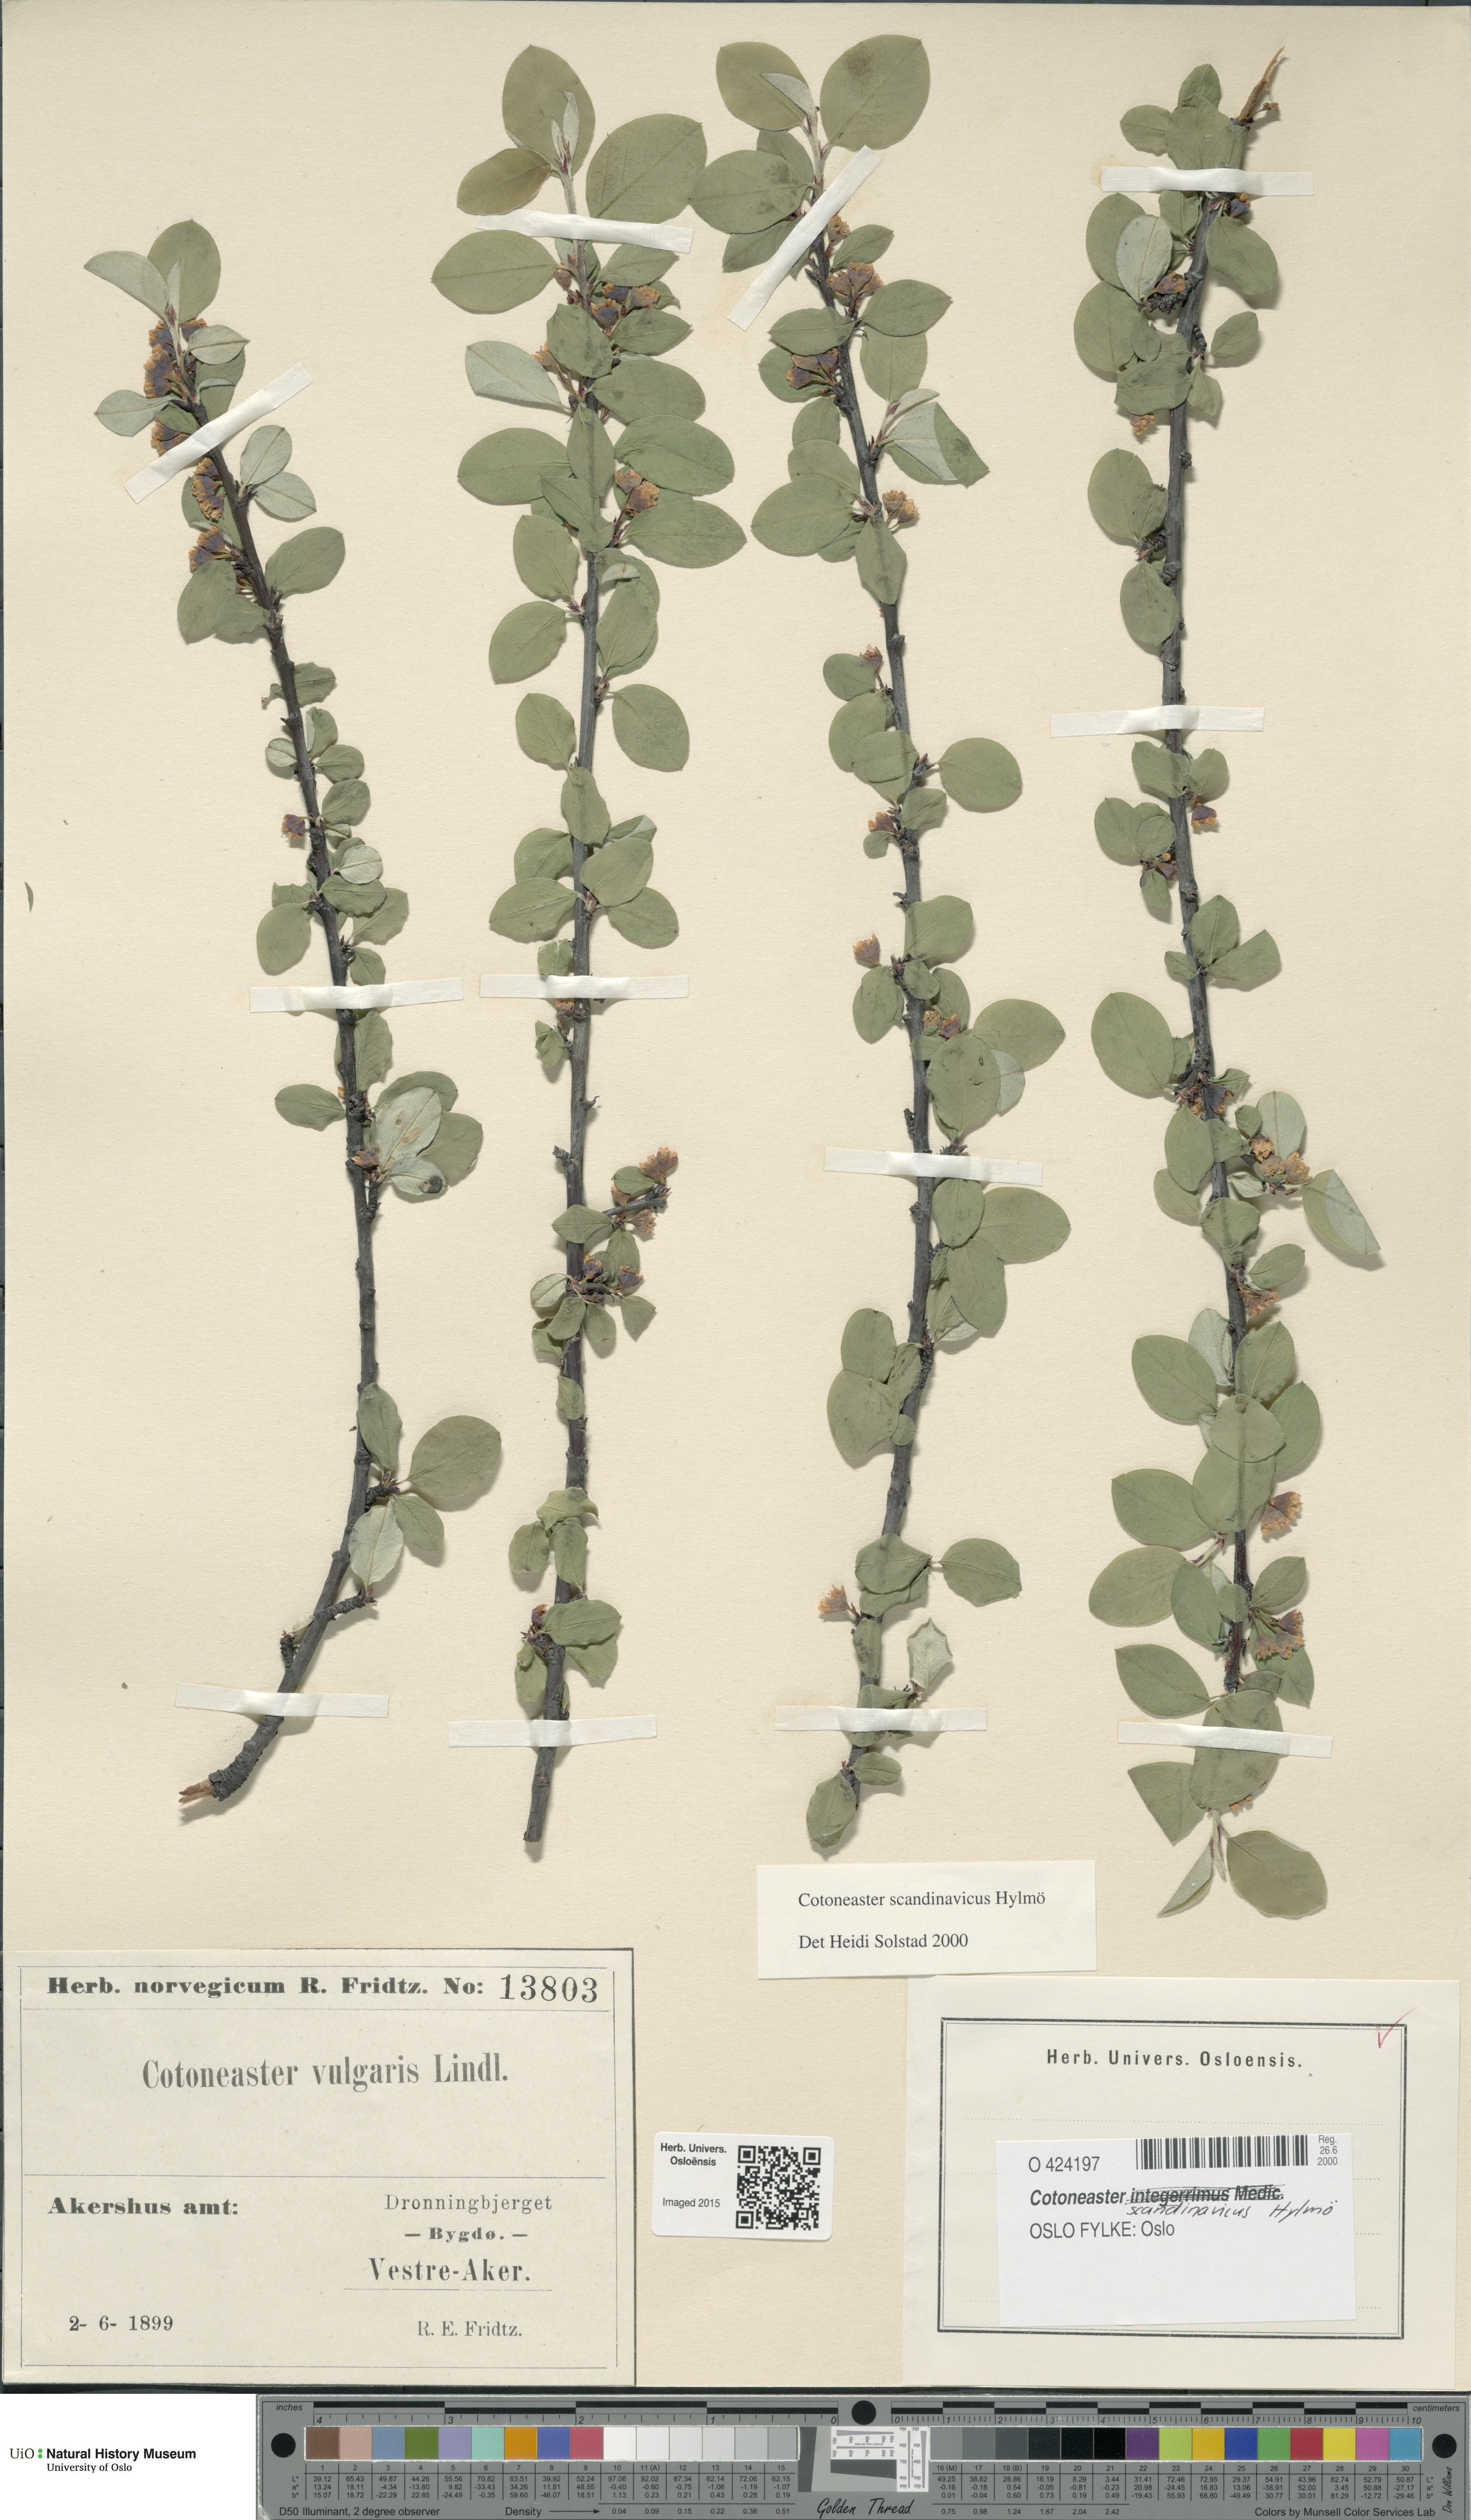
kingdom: Plantae
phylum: Tracheophyta
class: Magnoliopsida
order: Rosales
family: Rosaceae
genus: Cotoneaster
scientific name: Cotoneaster integerrimus
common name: Wild cotoneaster
